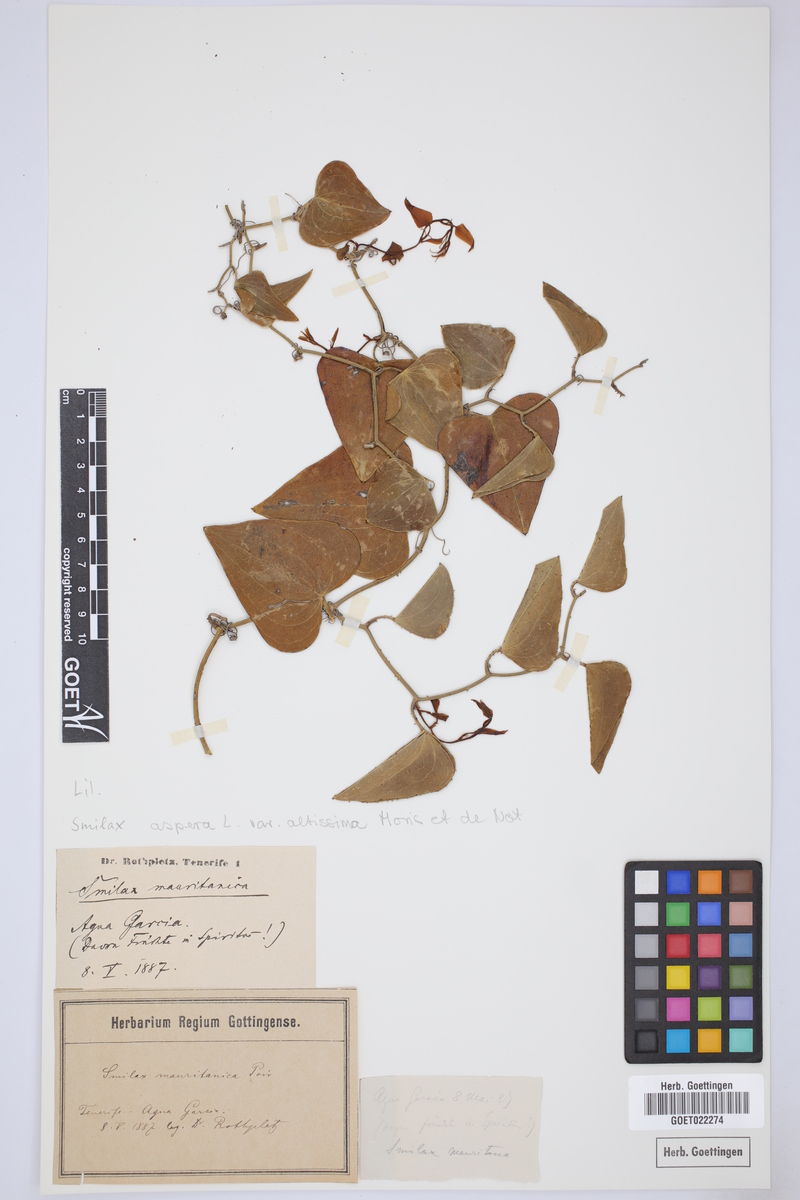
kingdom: Plantae
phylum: Tracheophyta
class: Liliopsida
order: Liliales
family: Smilacaceae
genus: Smilax
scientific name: Smilax aspera
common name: Common smilax
